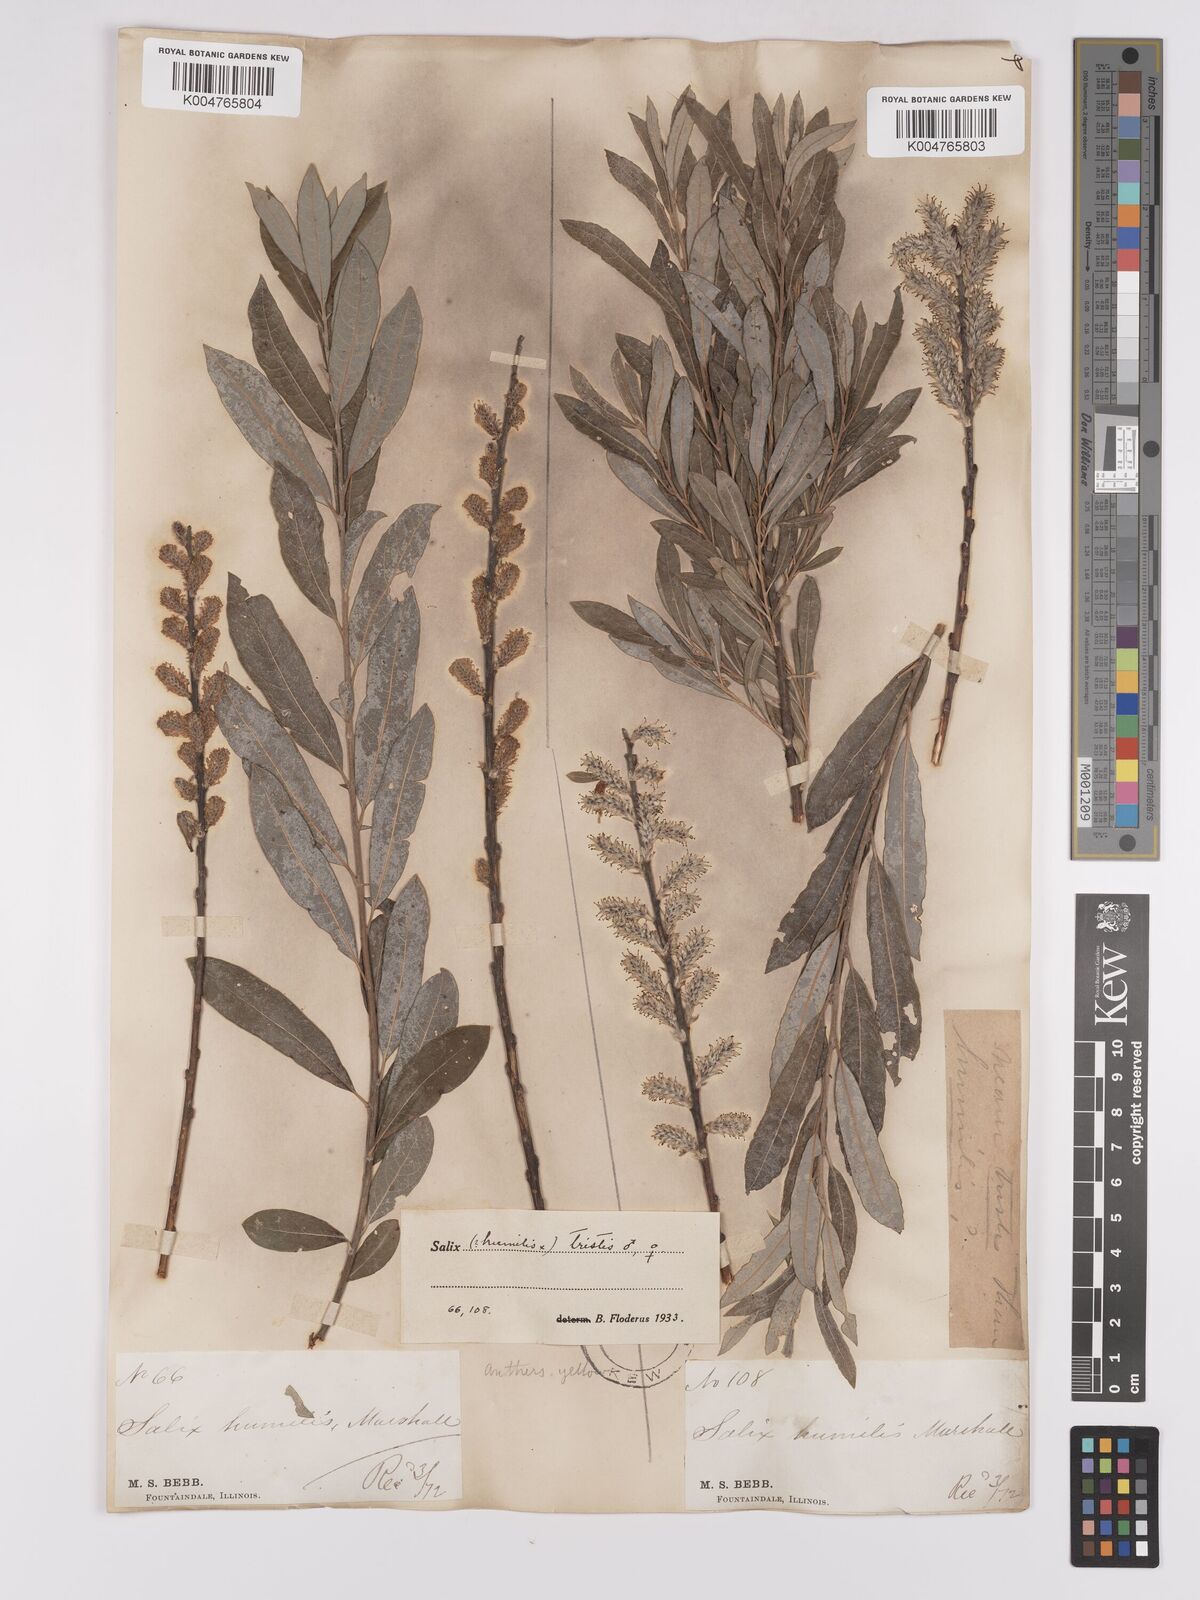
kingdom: Plantae
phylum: Tracheophyta
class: Magnoliopsida
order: Malpighiales
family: Salicaceae
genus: Salix
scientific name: Salix
